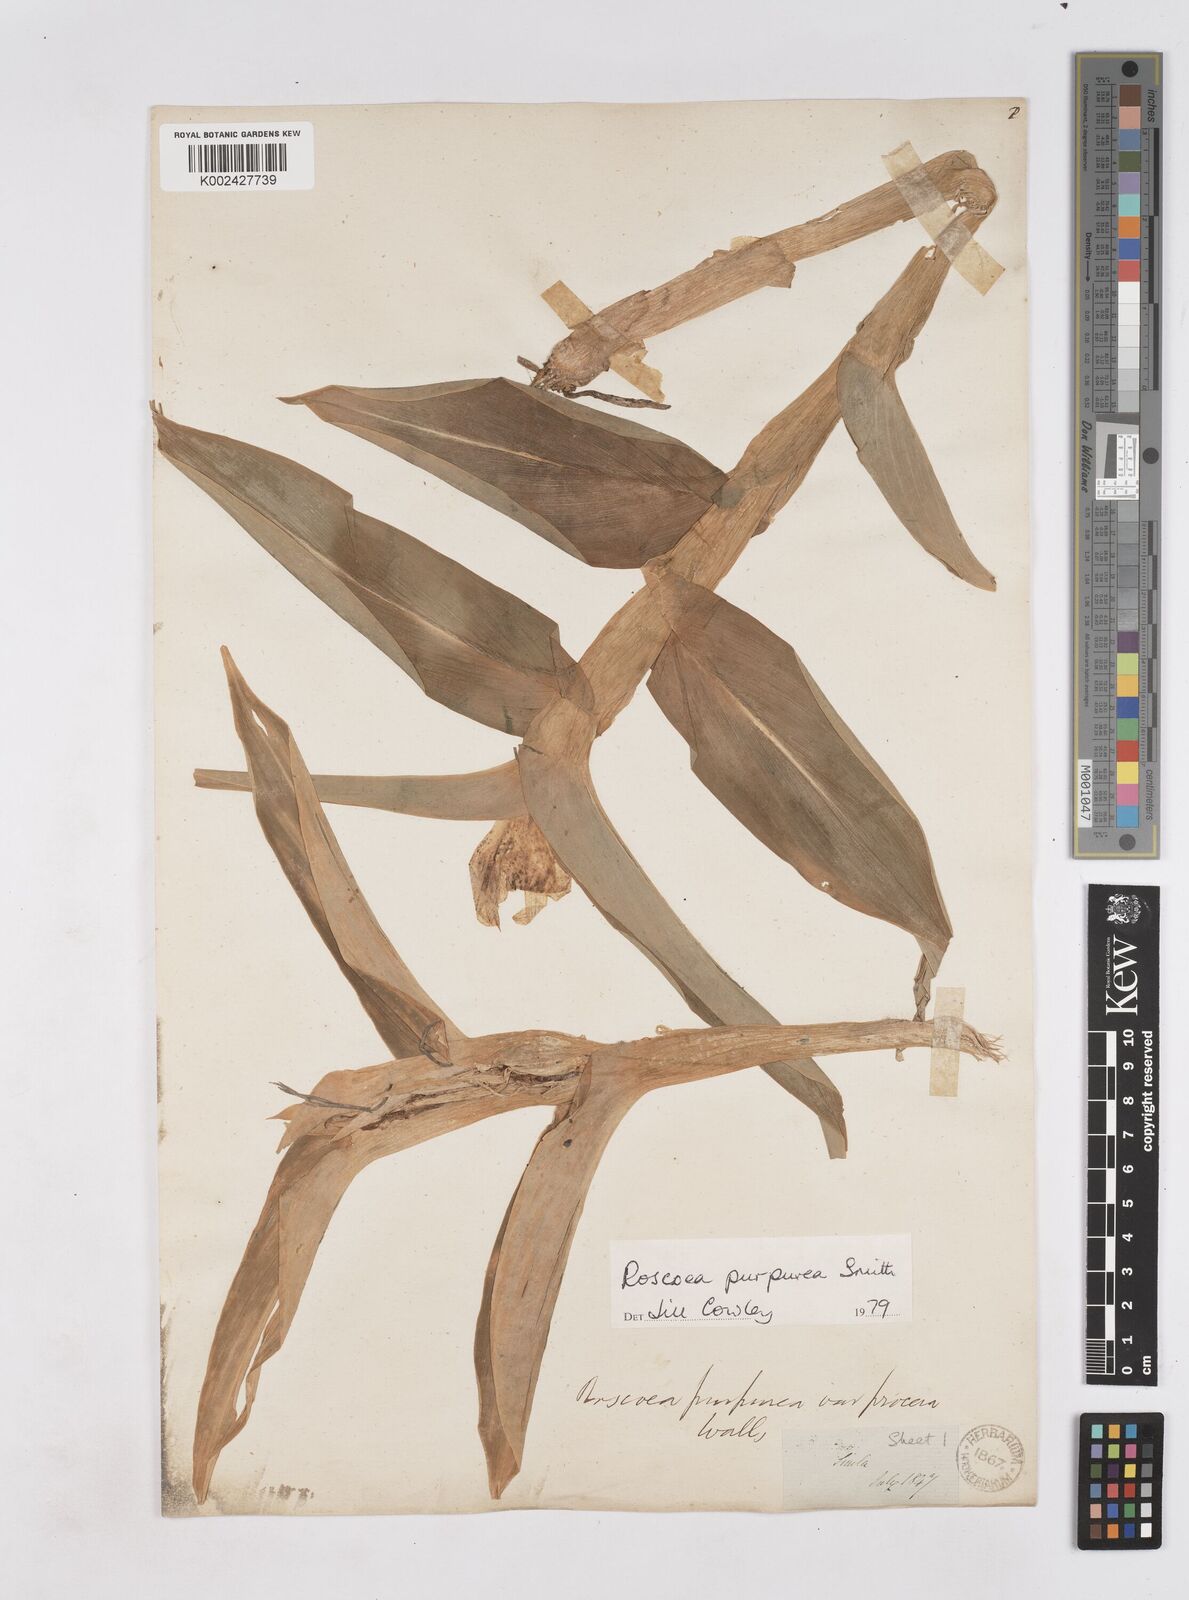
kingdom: Plantae
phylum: Tracheophyta
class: Liliopsida
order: Zingiberales
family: Zingiberaceae
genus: Roscoea
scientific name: Roscoea purpurea
